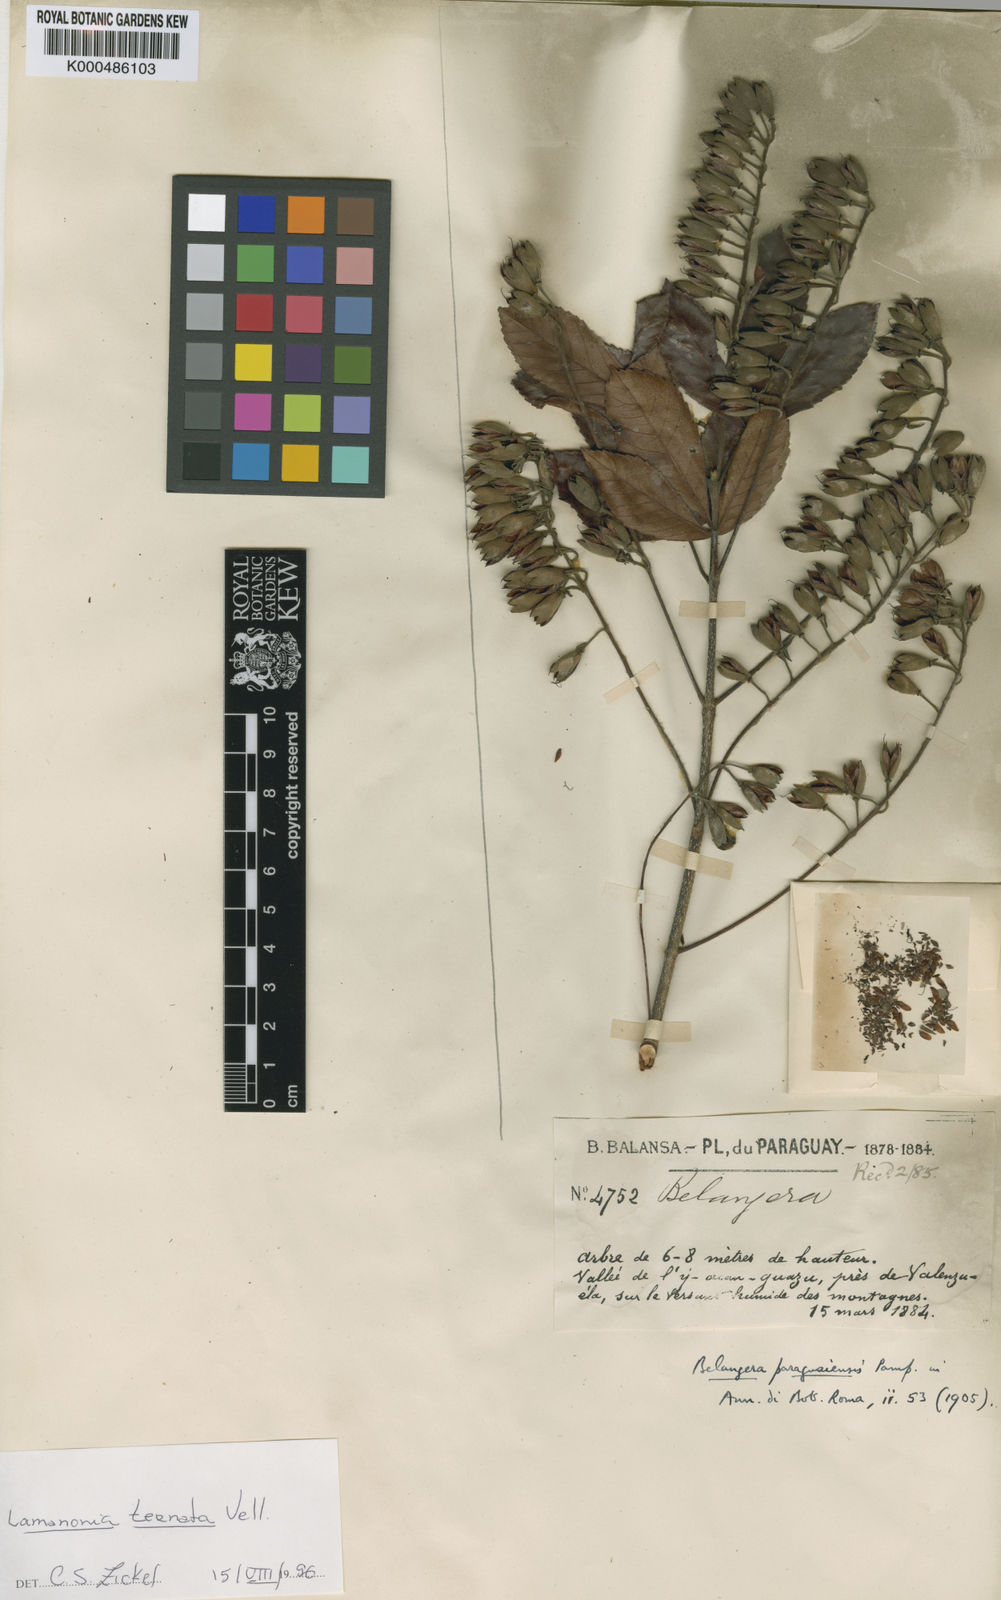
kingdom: Plantae
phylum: Tracheophyta
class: Magnoliopsida
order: Oxalidales
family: Cunoniaceae
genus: Lamanonia
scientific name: Lamanonia cuneata
